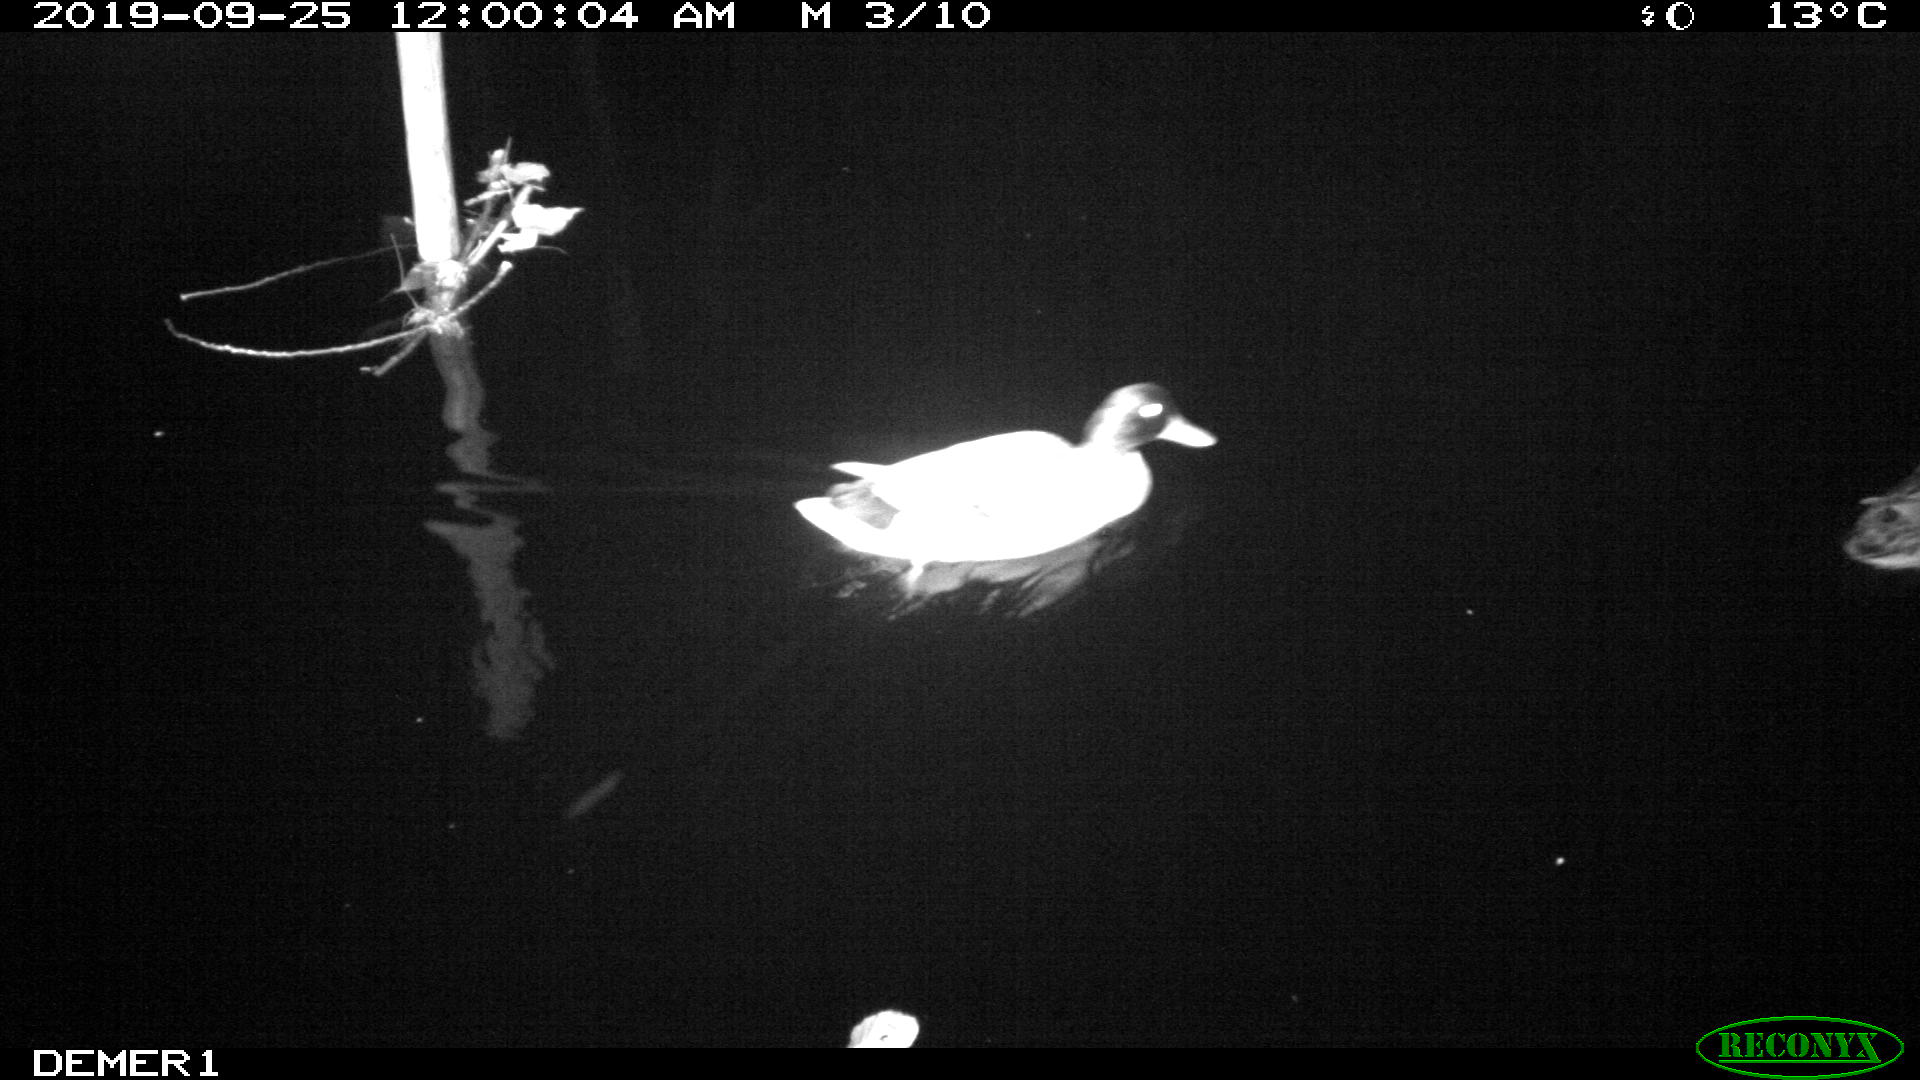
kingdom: Animalia
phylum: Chordata
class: Aves
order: Anseriformes
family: Anatidae
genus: Anas
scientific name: Anas platyrhynchos
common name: Mallard
